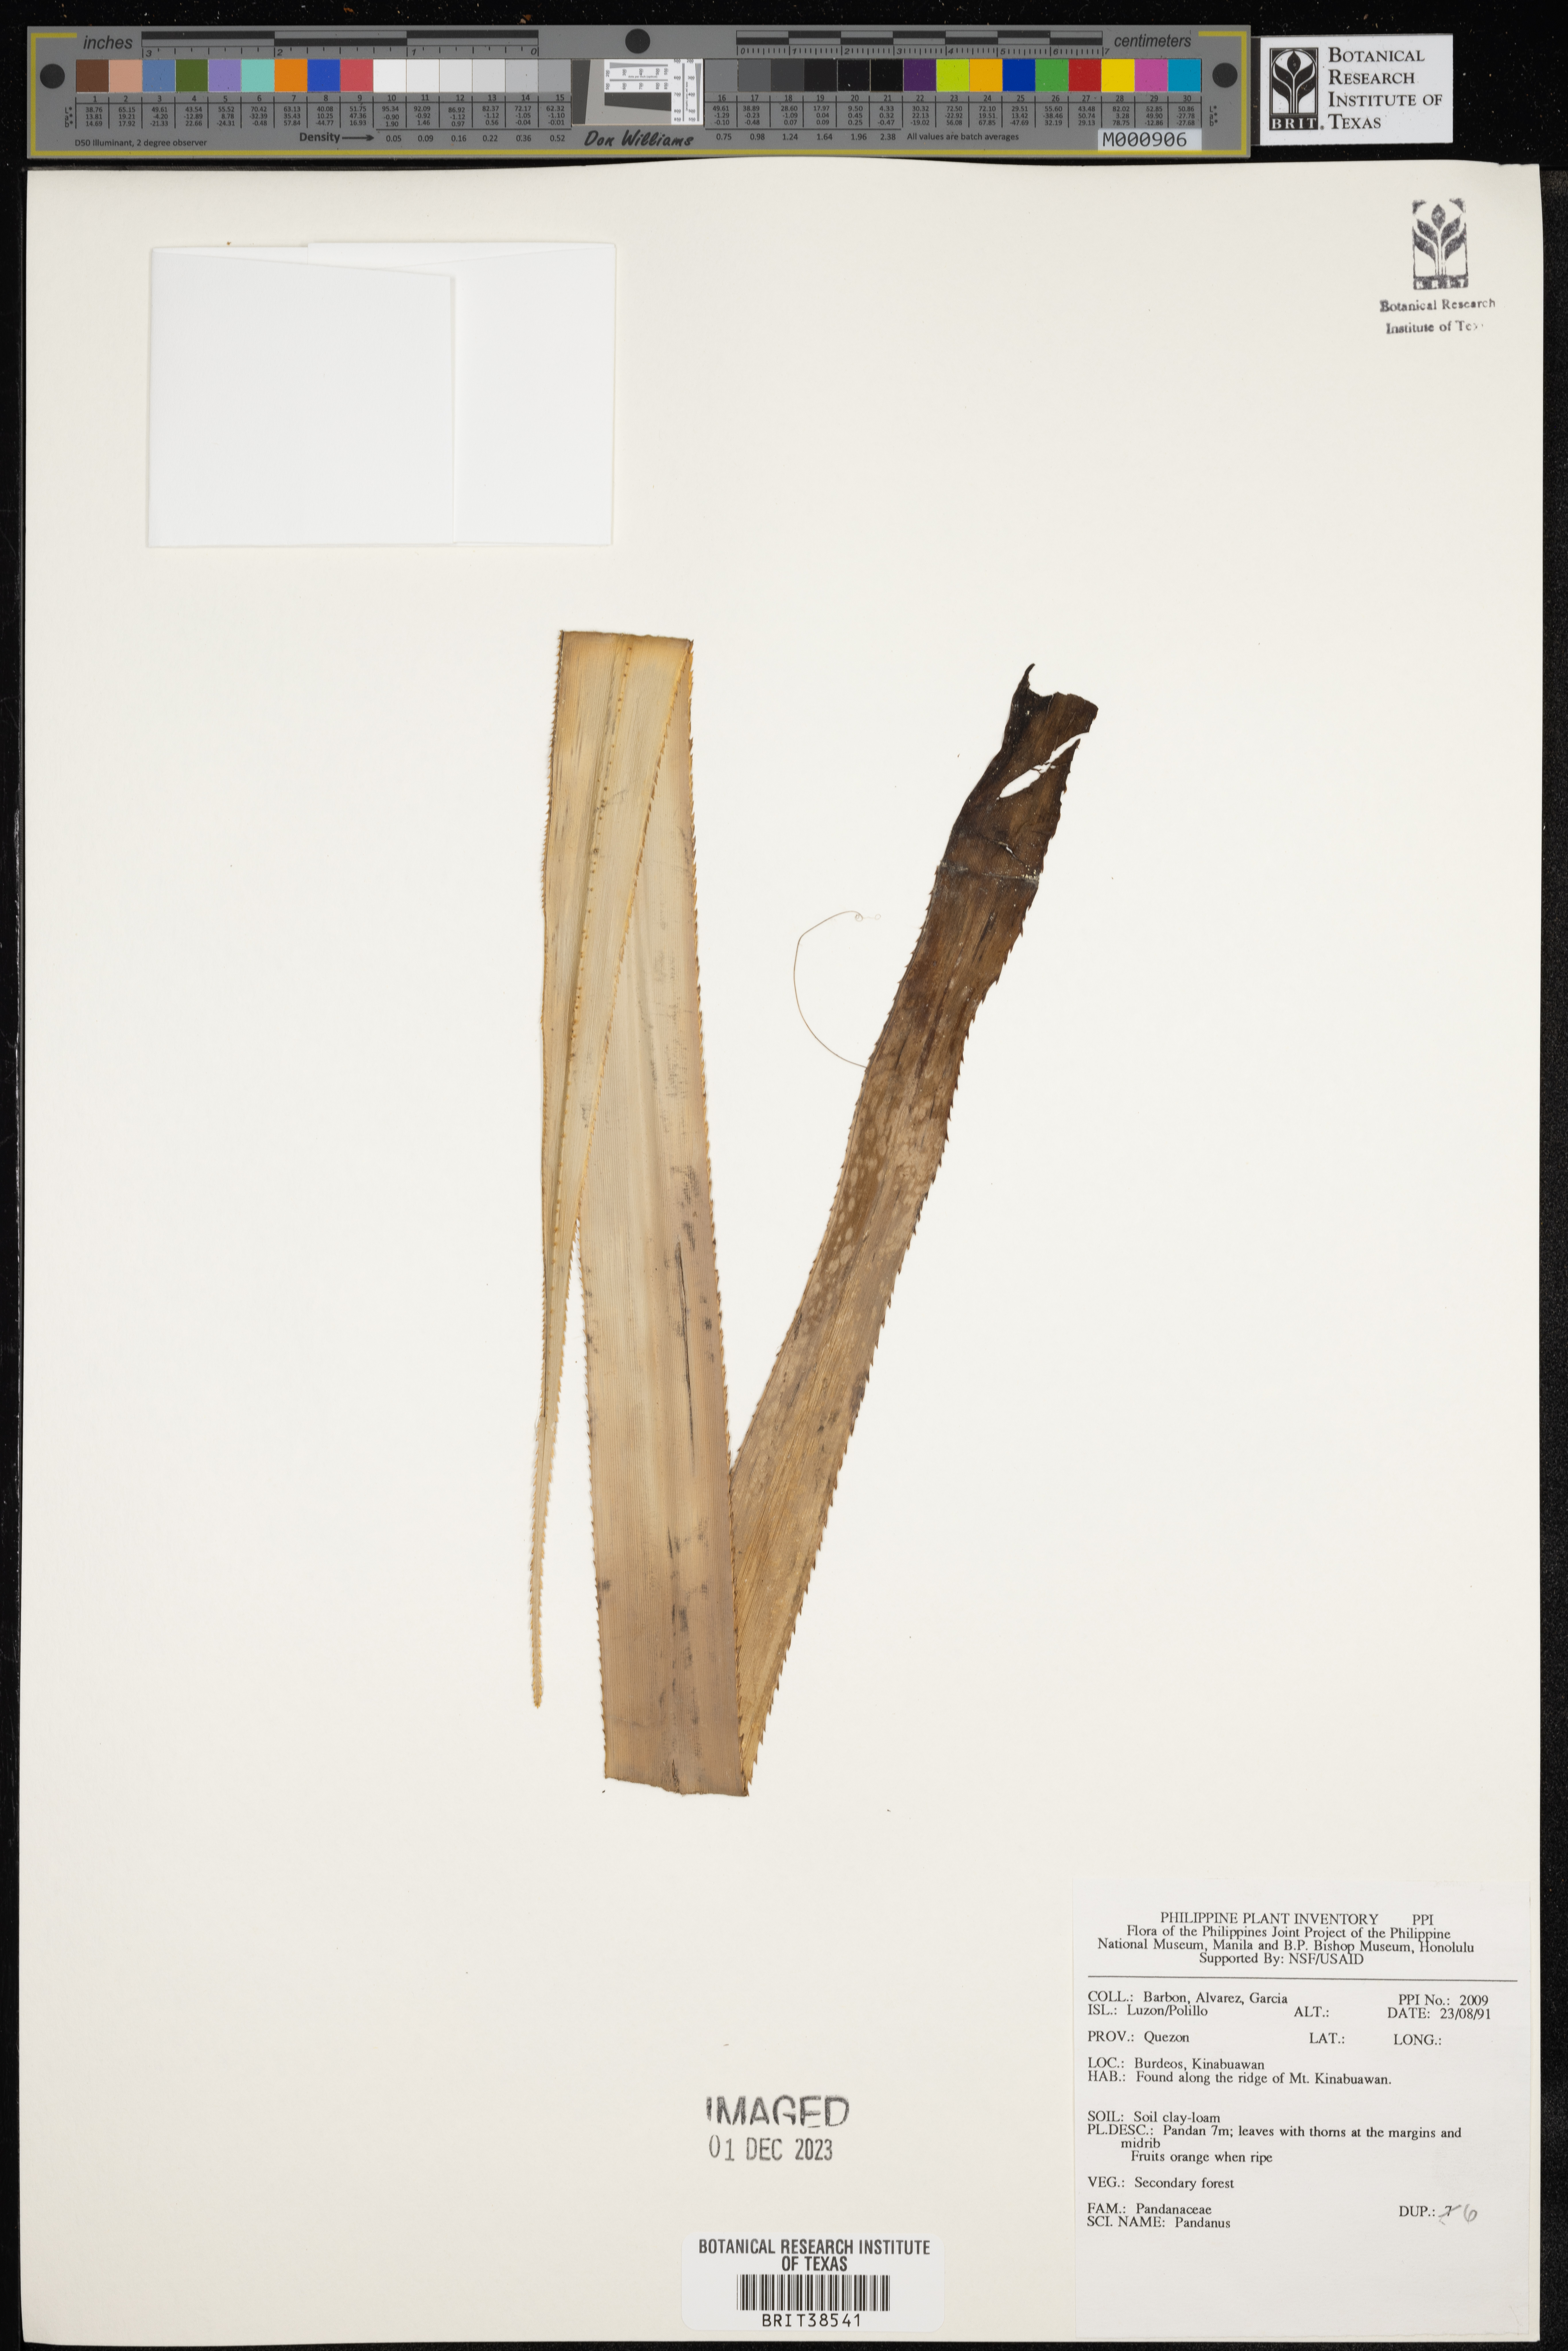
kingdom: Plantae
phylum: Tracheophyta
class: Liliopsida
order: Pandanales
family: Pandanaceae
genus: Pandanus
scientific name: Pandanus
